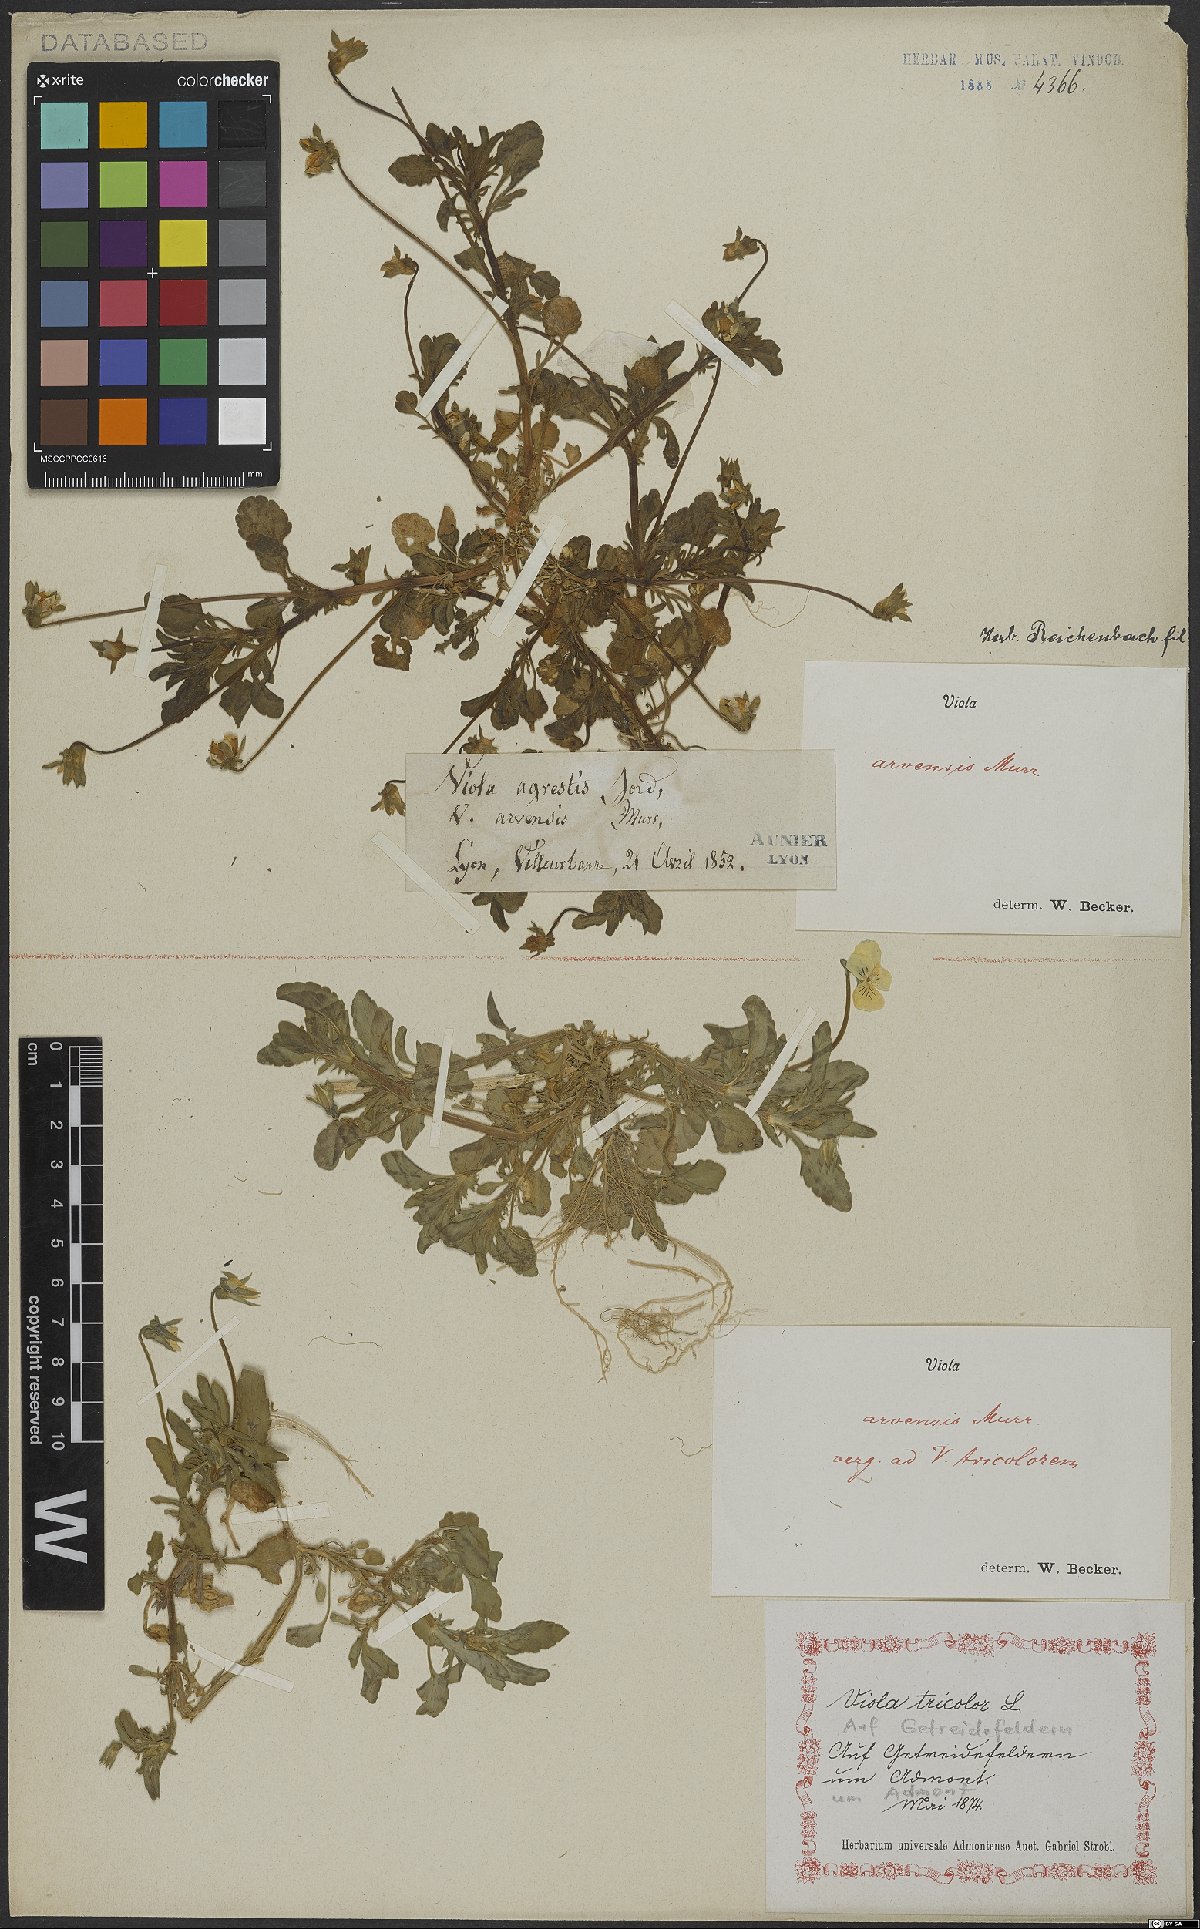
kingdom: Plantae
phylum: Tracheophyta
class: Magnoliopsida
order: Malpighiales
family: Violaceae
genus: Viola
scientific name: Viola arvensis
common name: Field pansy
